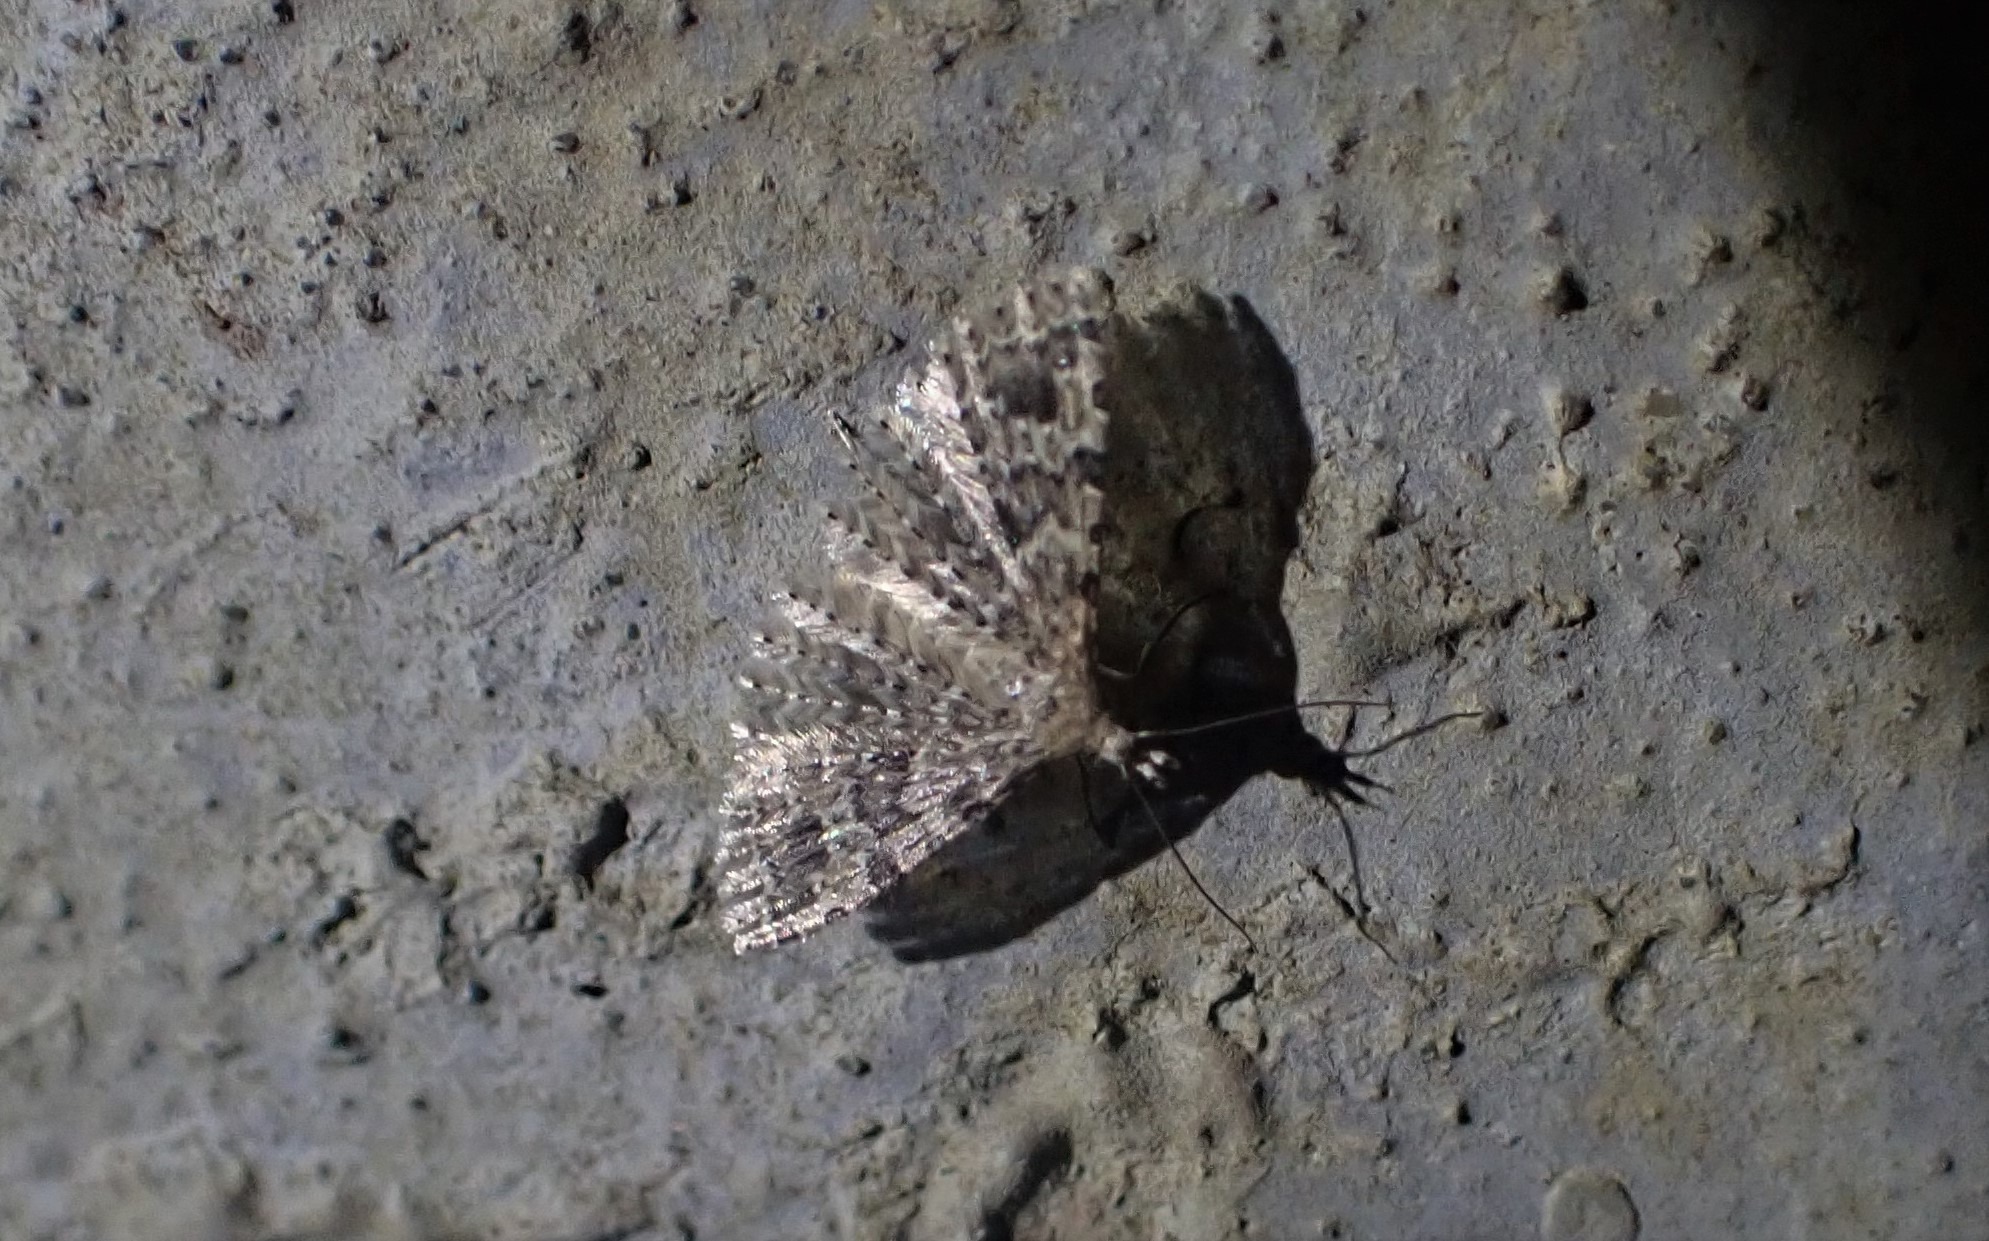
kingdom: Animalia
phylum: Arthropoda
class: Insecta
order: Lepidoptera
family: Alucitidae
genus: Alucita
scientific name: Alucita hexadactyla
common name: Kaprifoliefjermøl
